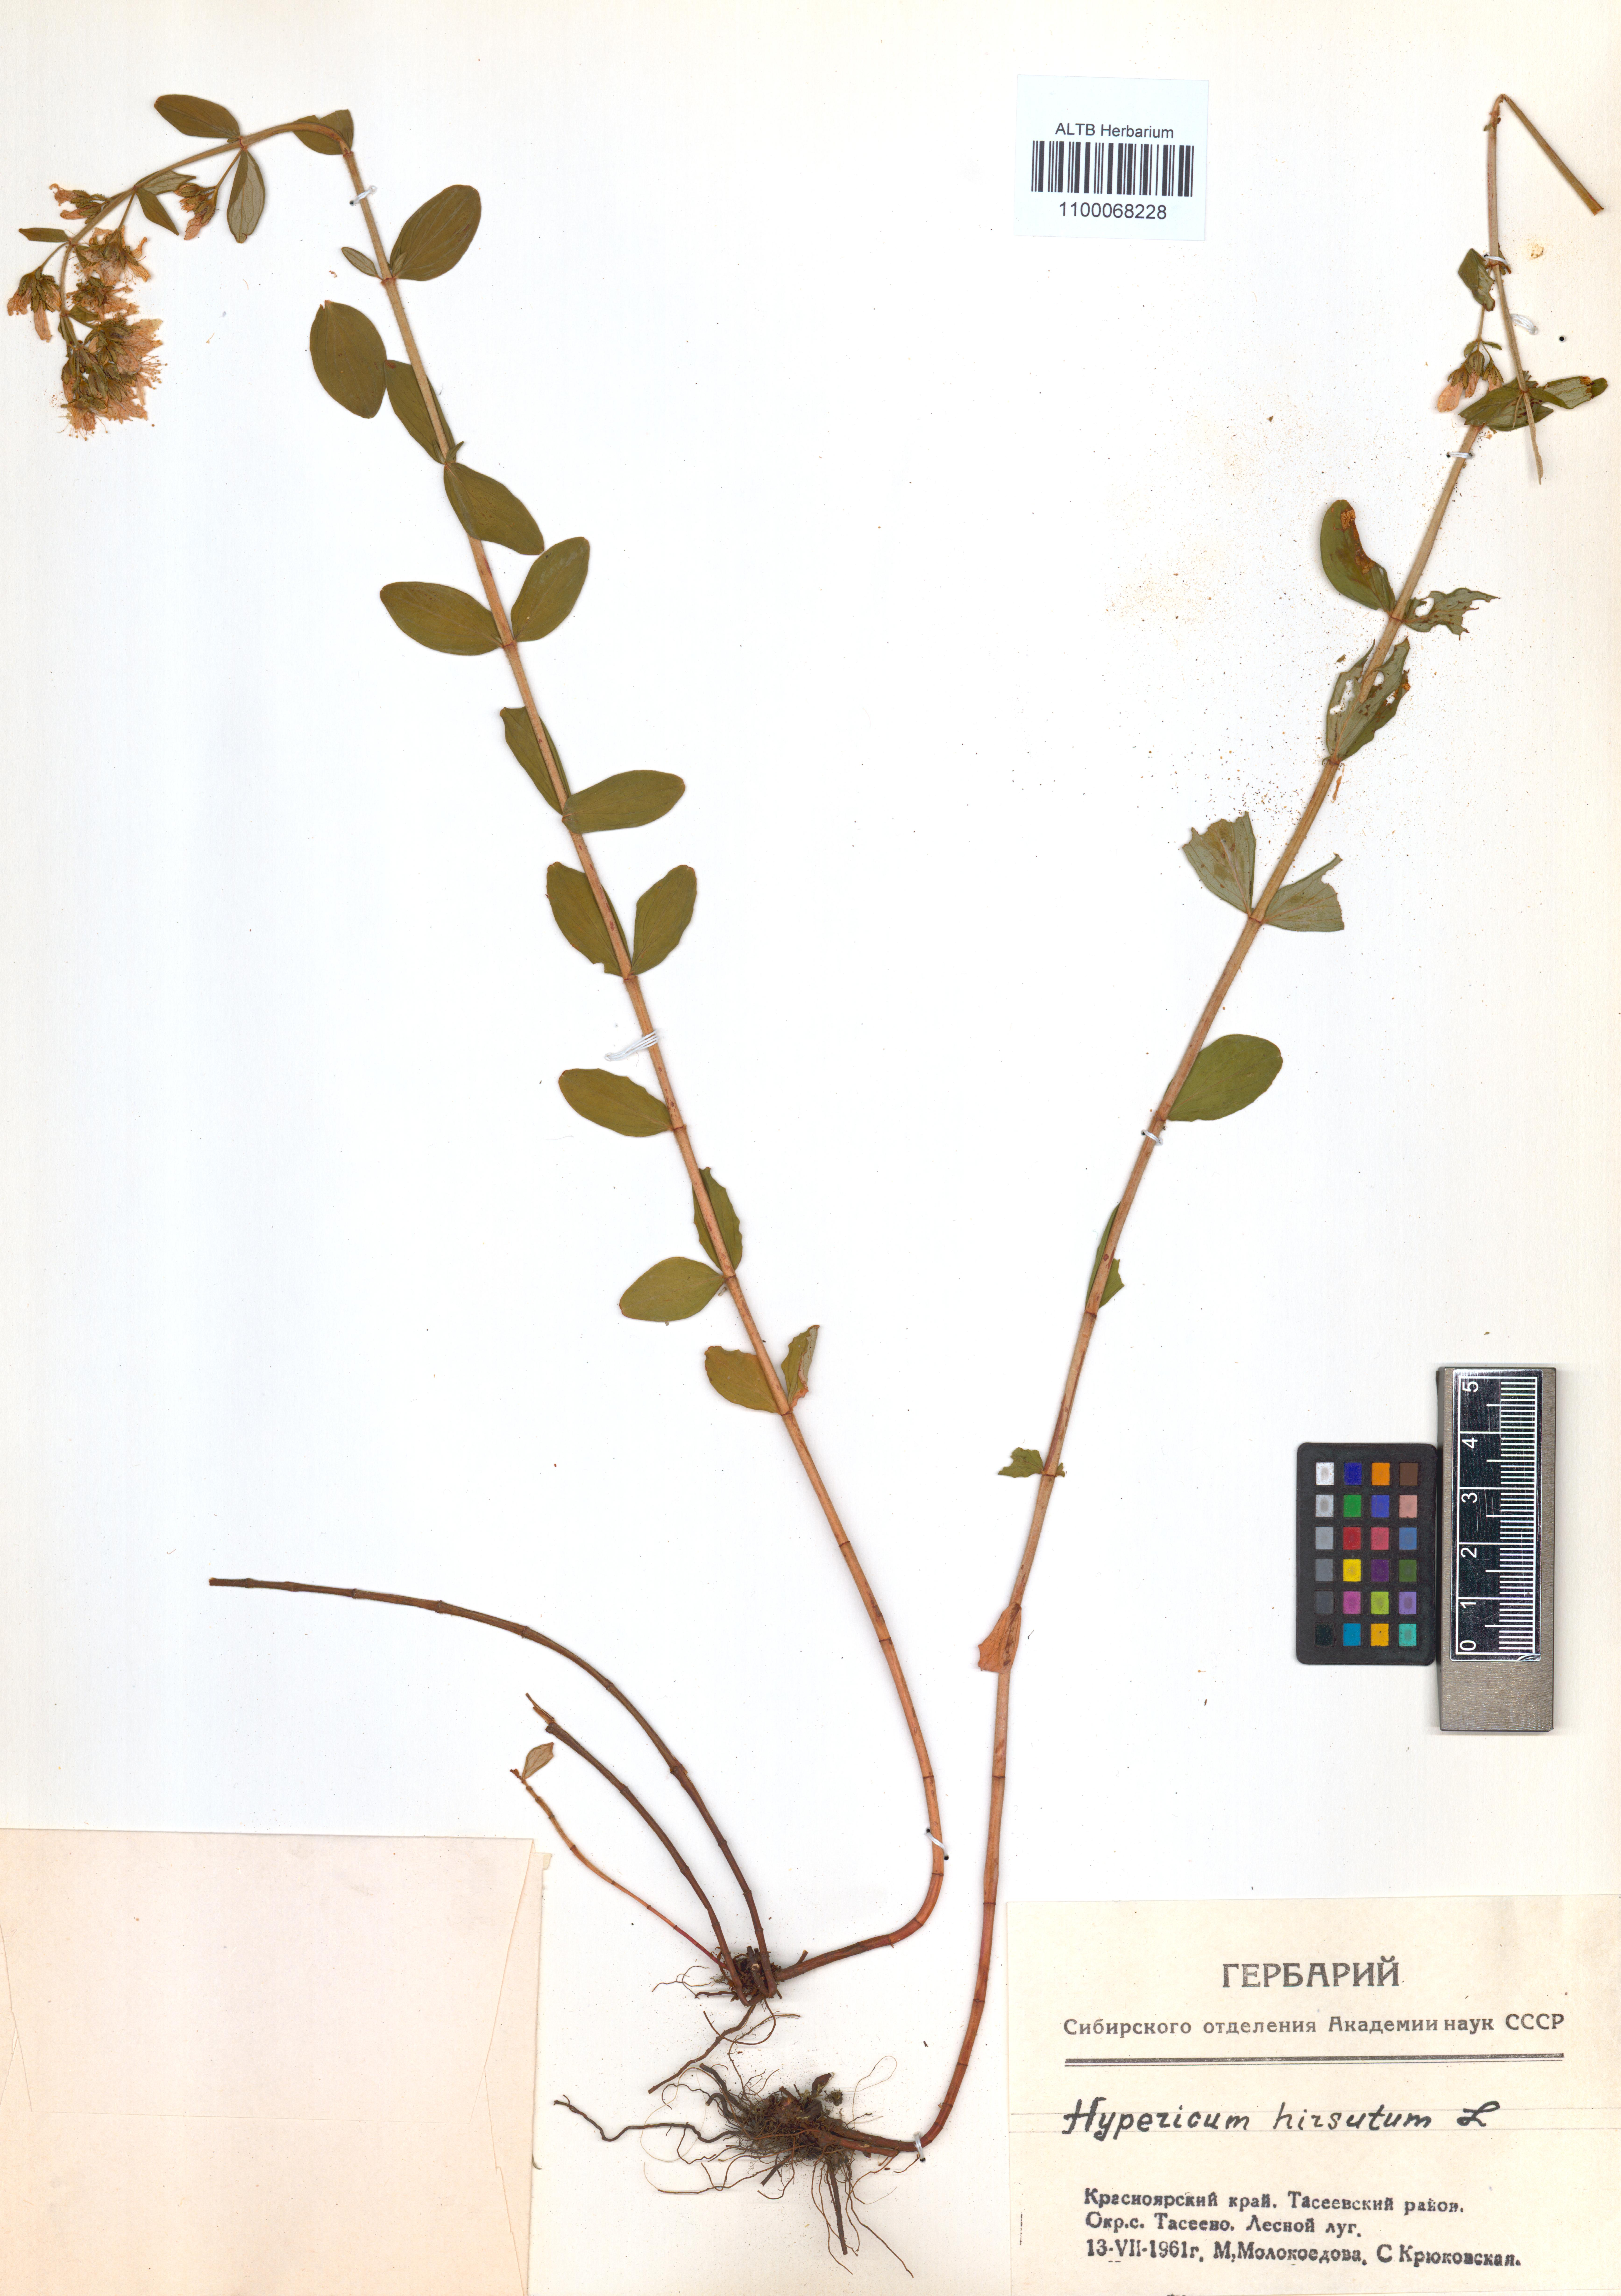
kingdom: Plantae
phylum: Tracheophyta
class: Magnoliopsida
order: Malpighiales
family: Hypericaceae
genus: Hypericum
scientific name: Hypericum hirsutum
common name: Hairy st. john's-wort
